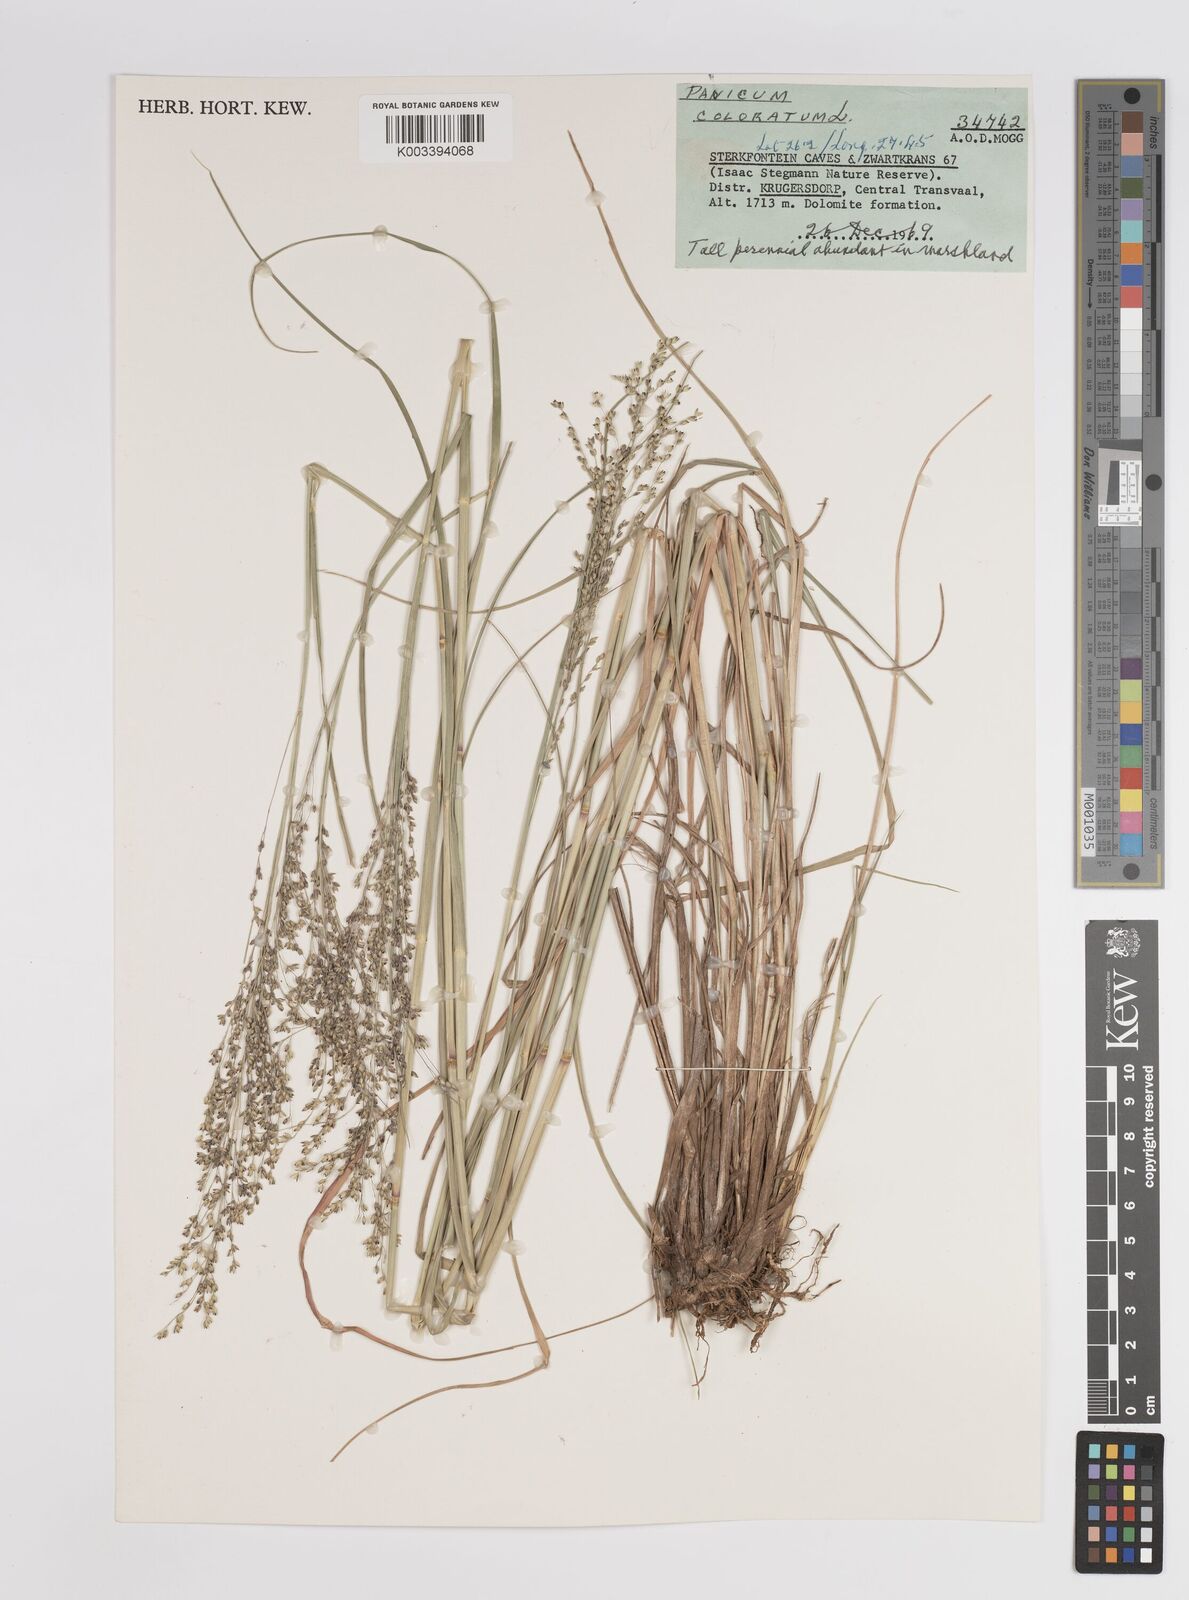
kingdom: Plantae
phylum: Tracheophyta
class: Liliopsida
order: Poales
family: Poaceae
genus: Panicum
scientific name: Panicum coloratum
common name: Kleingrass
